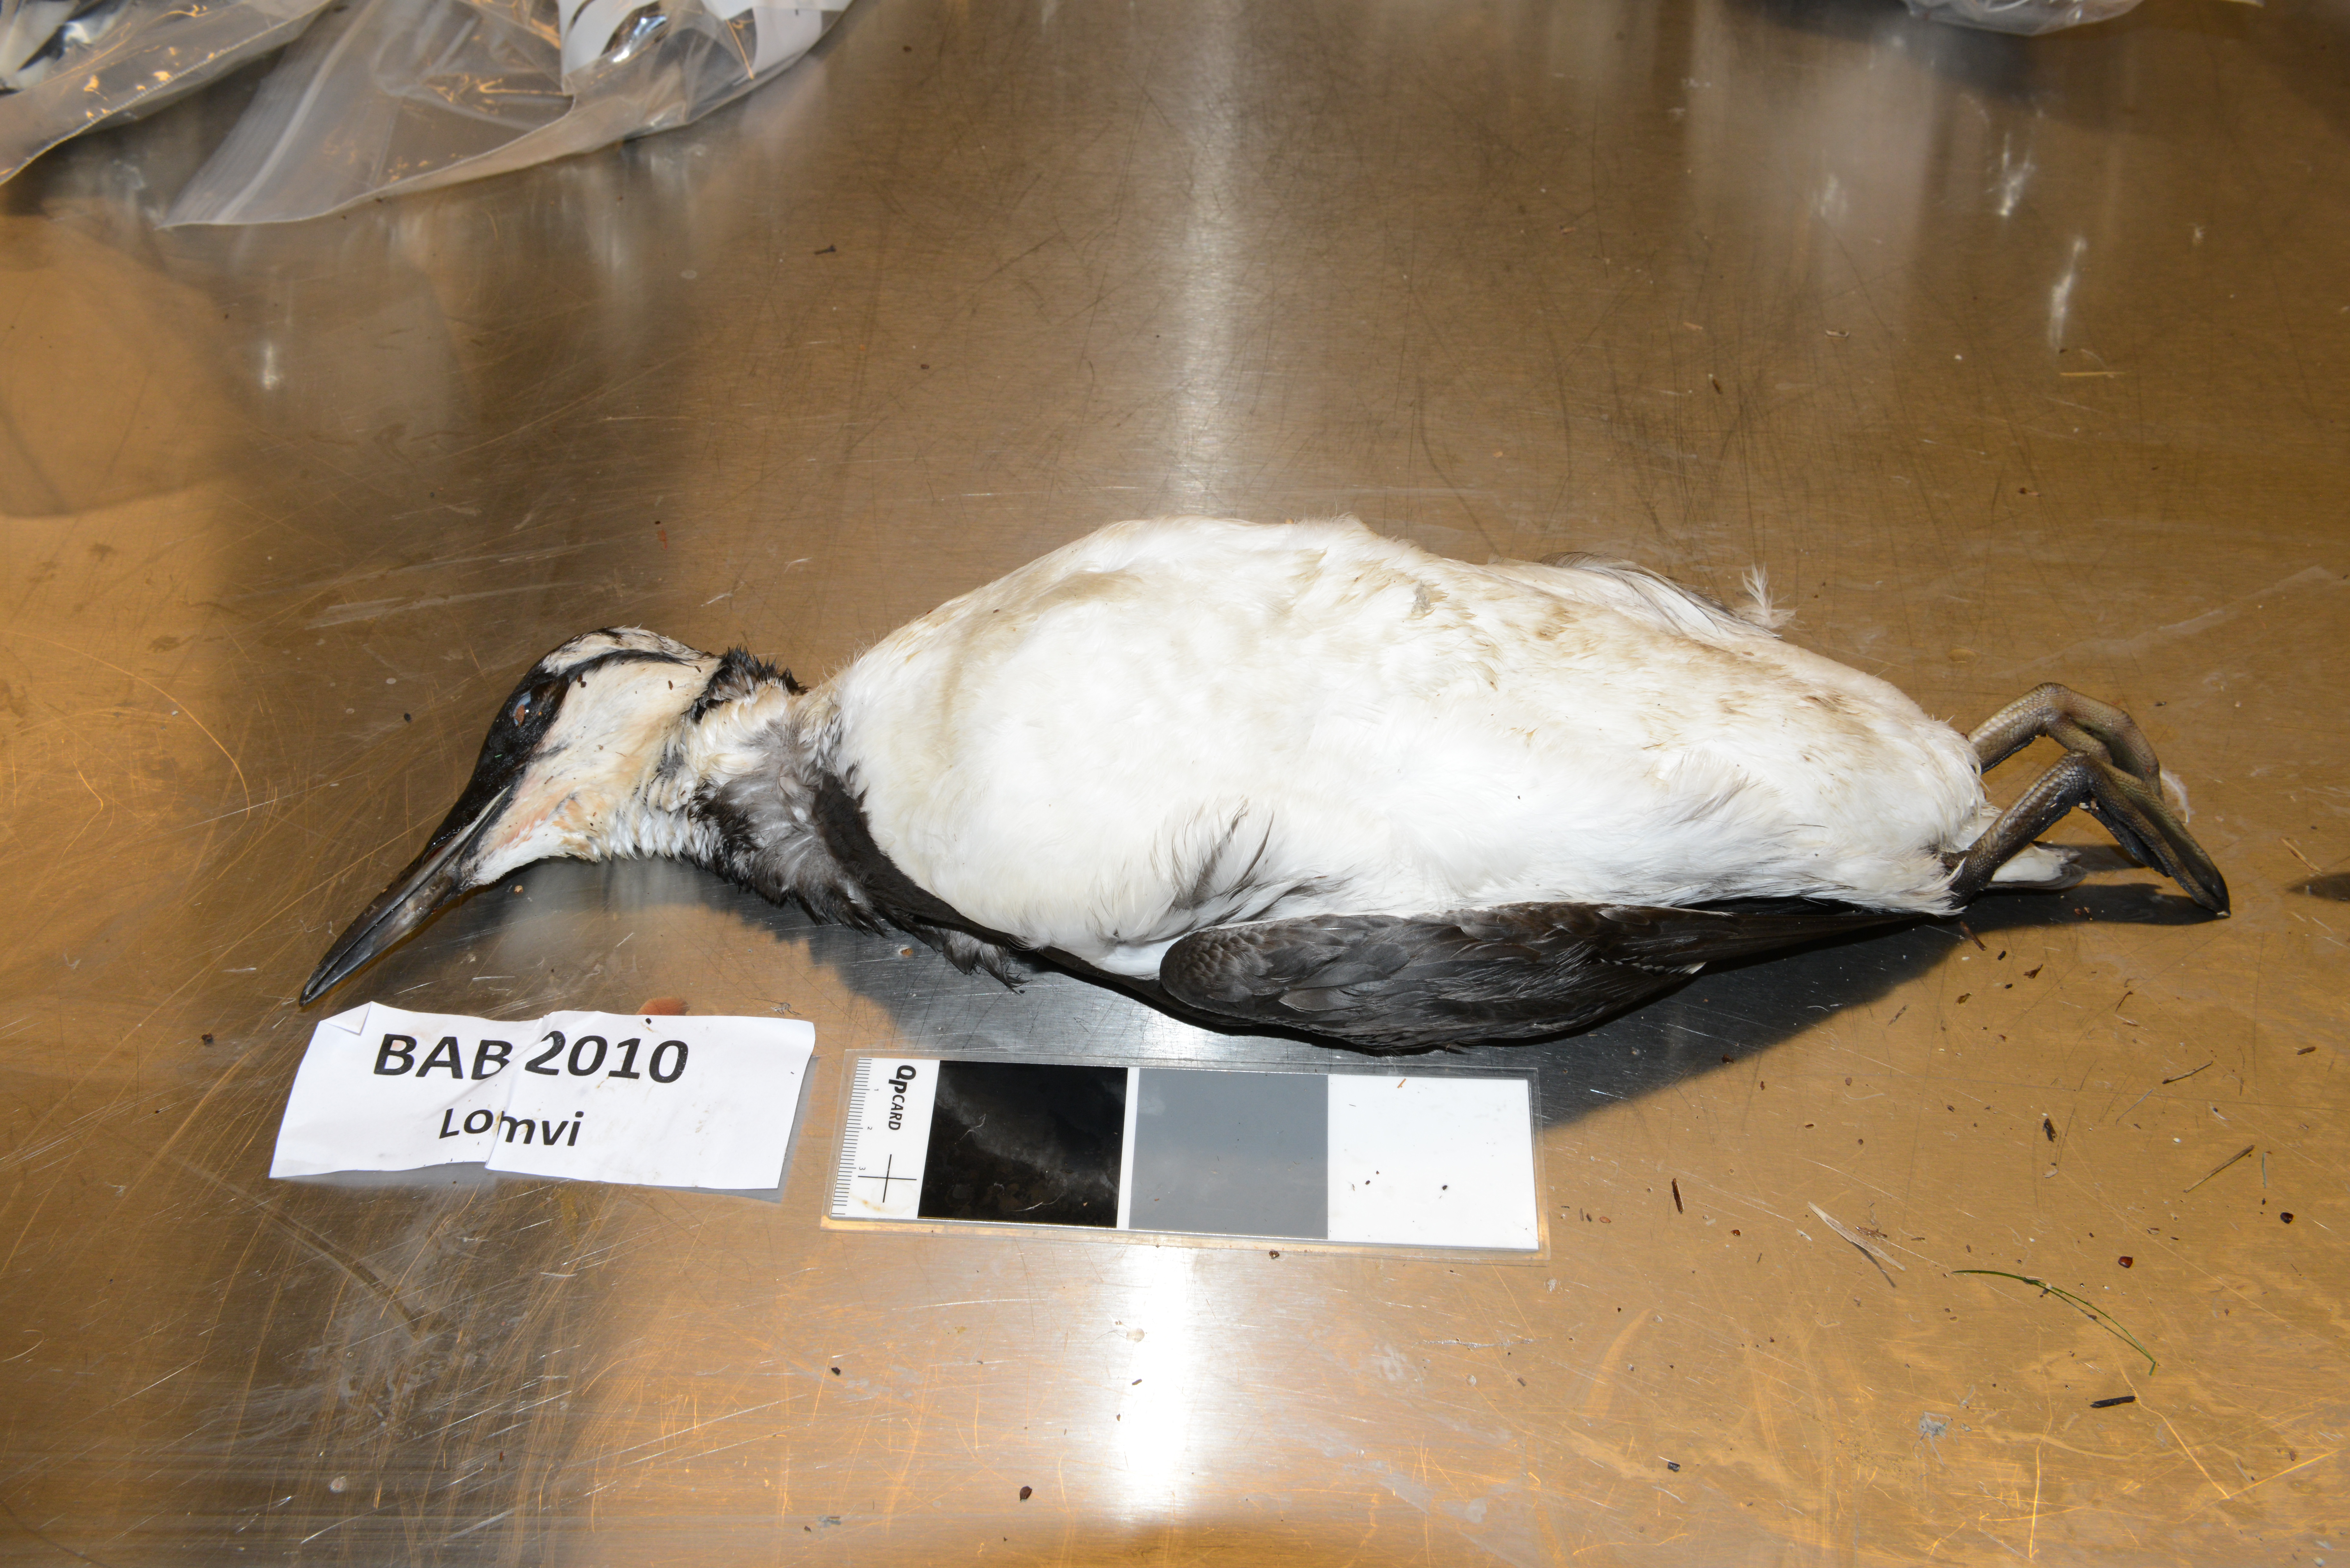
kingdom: Animalia
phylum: Chordata
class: Aves
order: Charadriiformes
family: Alcidae
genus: Uria
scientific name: Uria aalge
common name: Common murre
